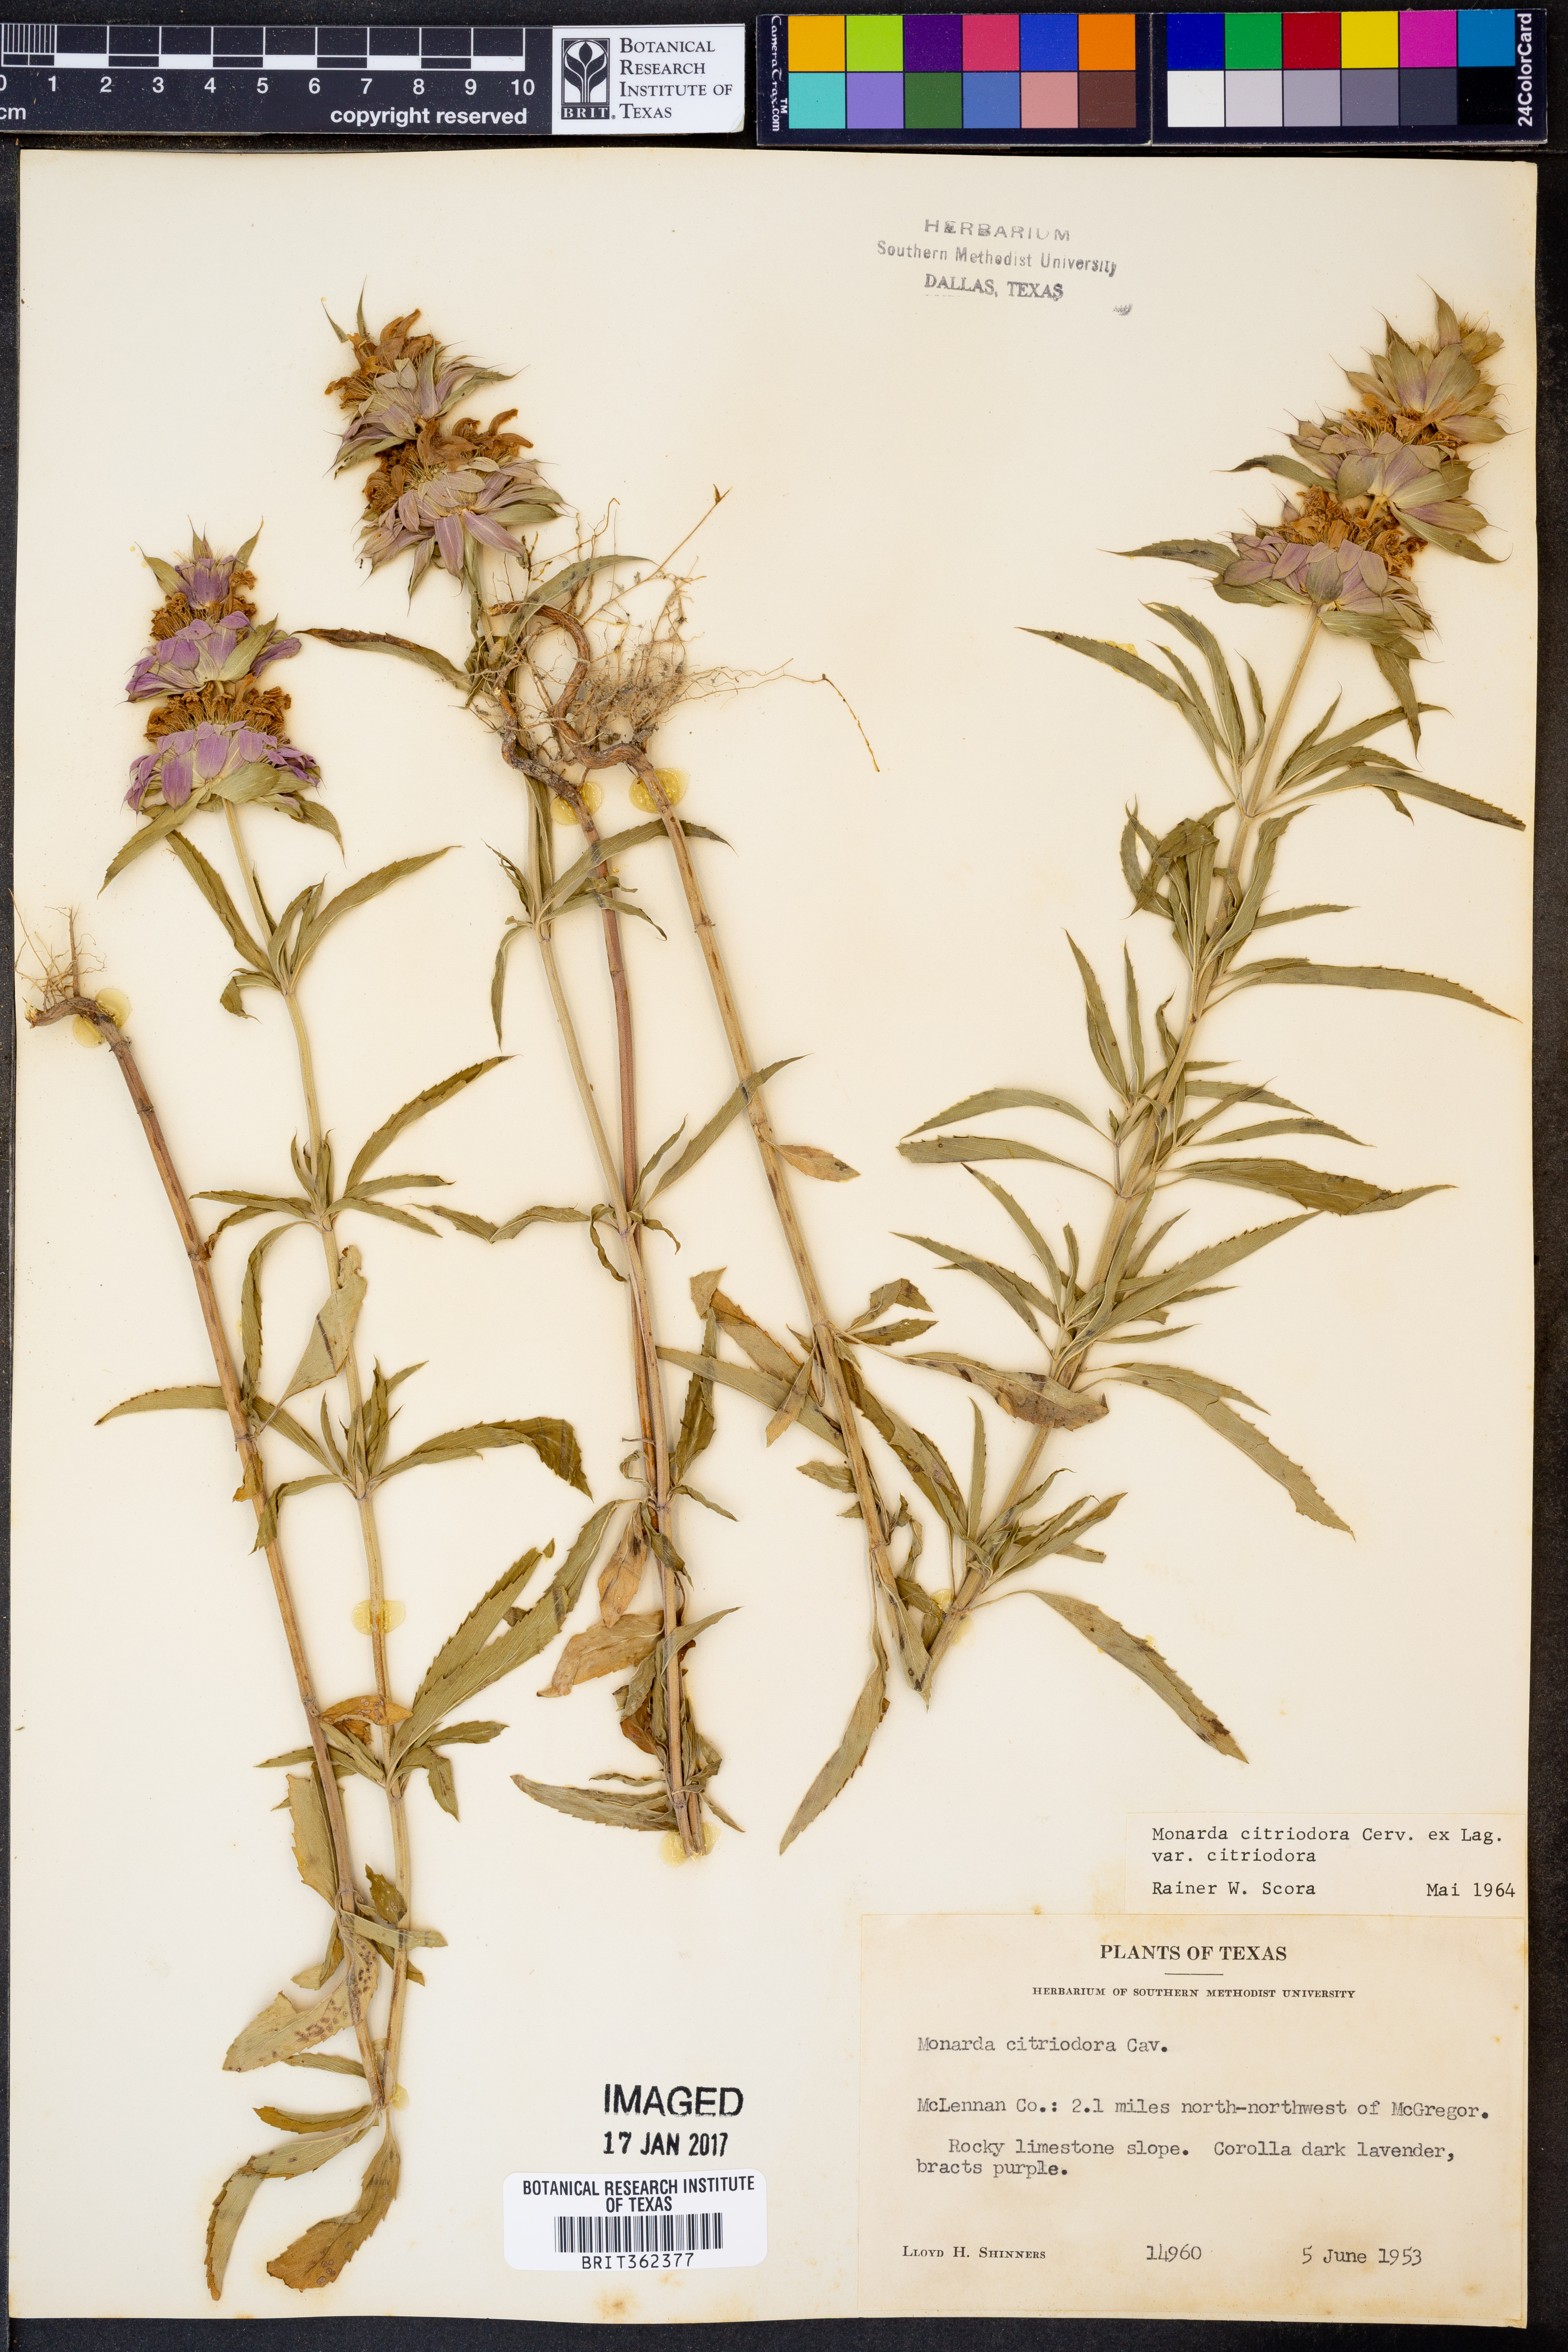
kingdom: Plantae
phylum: Tracheophyta
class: Magnoliopsida
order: Lamiales
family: Lamiaceae
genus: Monarda
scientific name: Monarda citriodora
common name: Lemon beebalm
